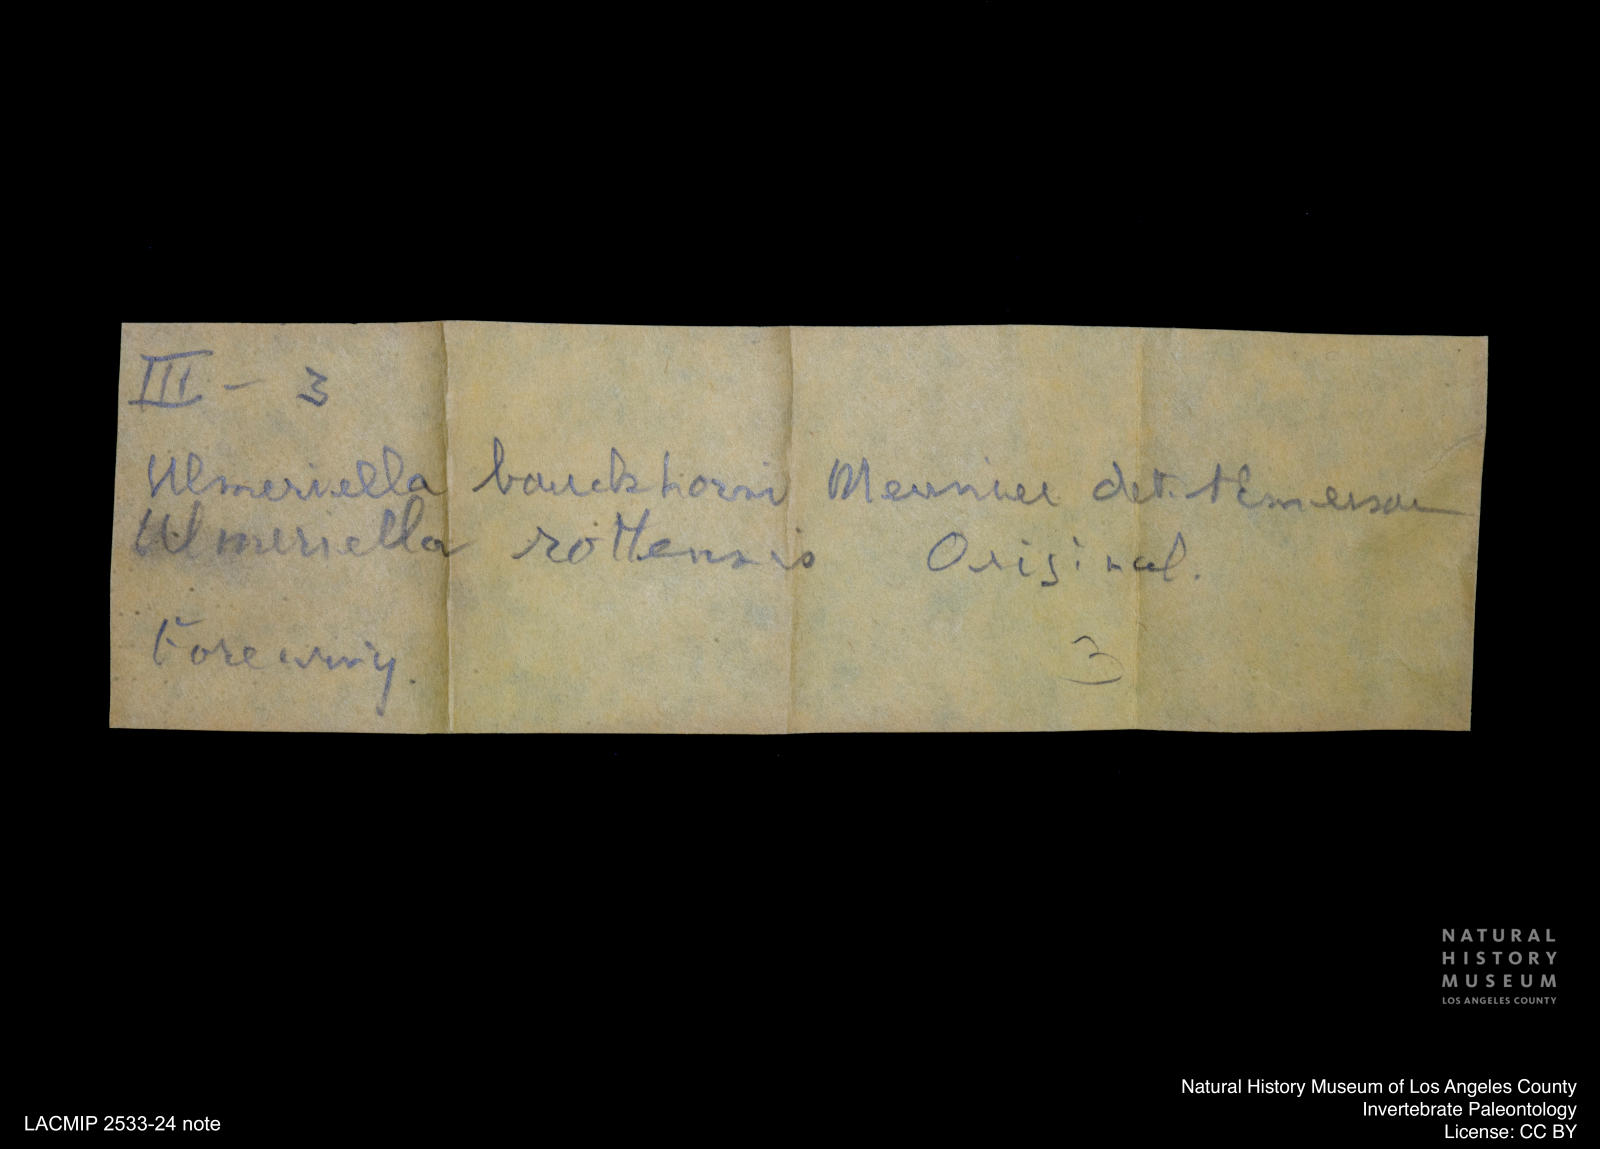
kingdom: Animalia
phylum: Arthropoda
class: Insecta
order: Blattodea
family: Hodotermitidae
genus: Ulmeriella
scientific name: Ulmeriella bauckhorni
